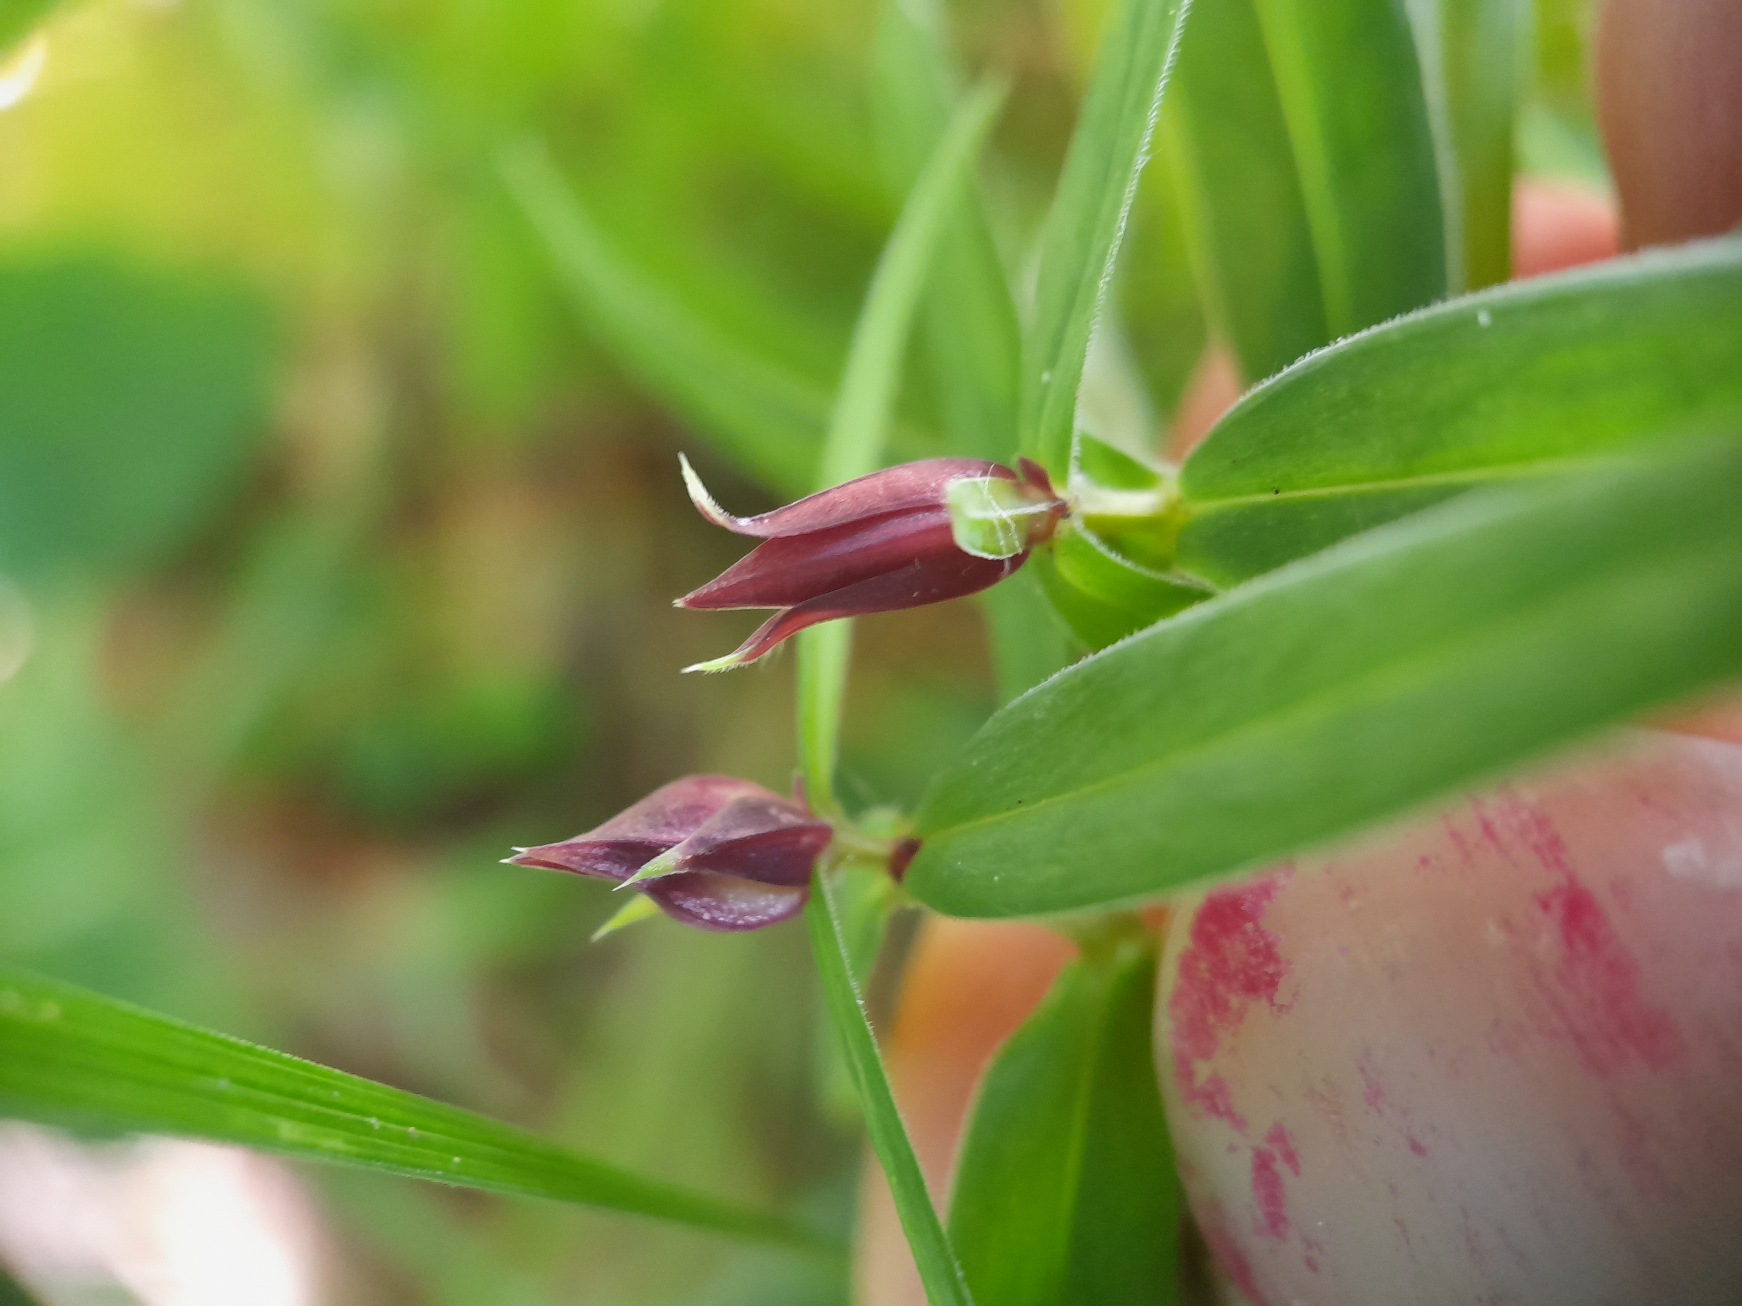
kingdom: Animalia
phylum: Arthropoda
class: Insecta
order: Diptera
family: Cecidomyiidae
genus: Dasineura
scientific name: Dasineura stellariae
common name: Fladstjernegalmyg
